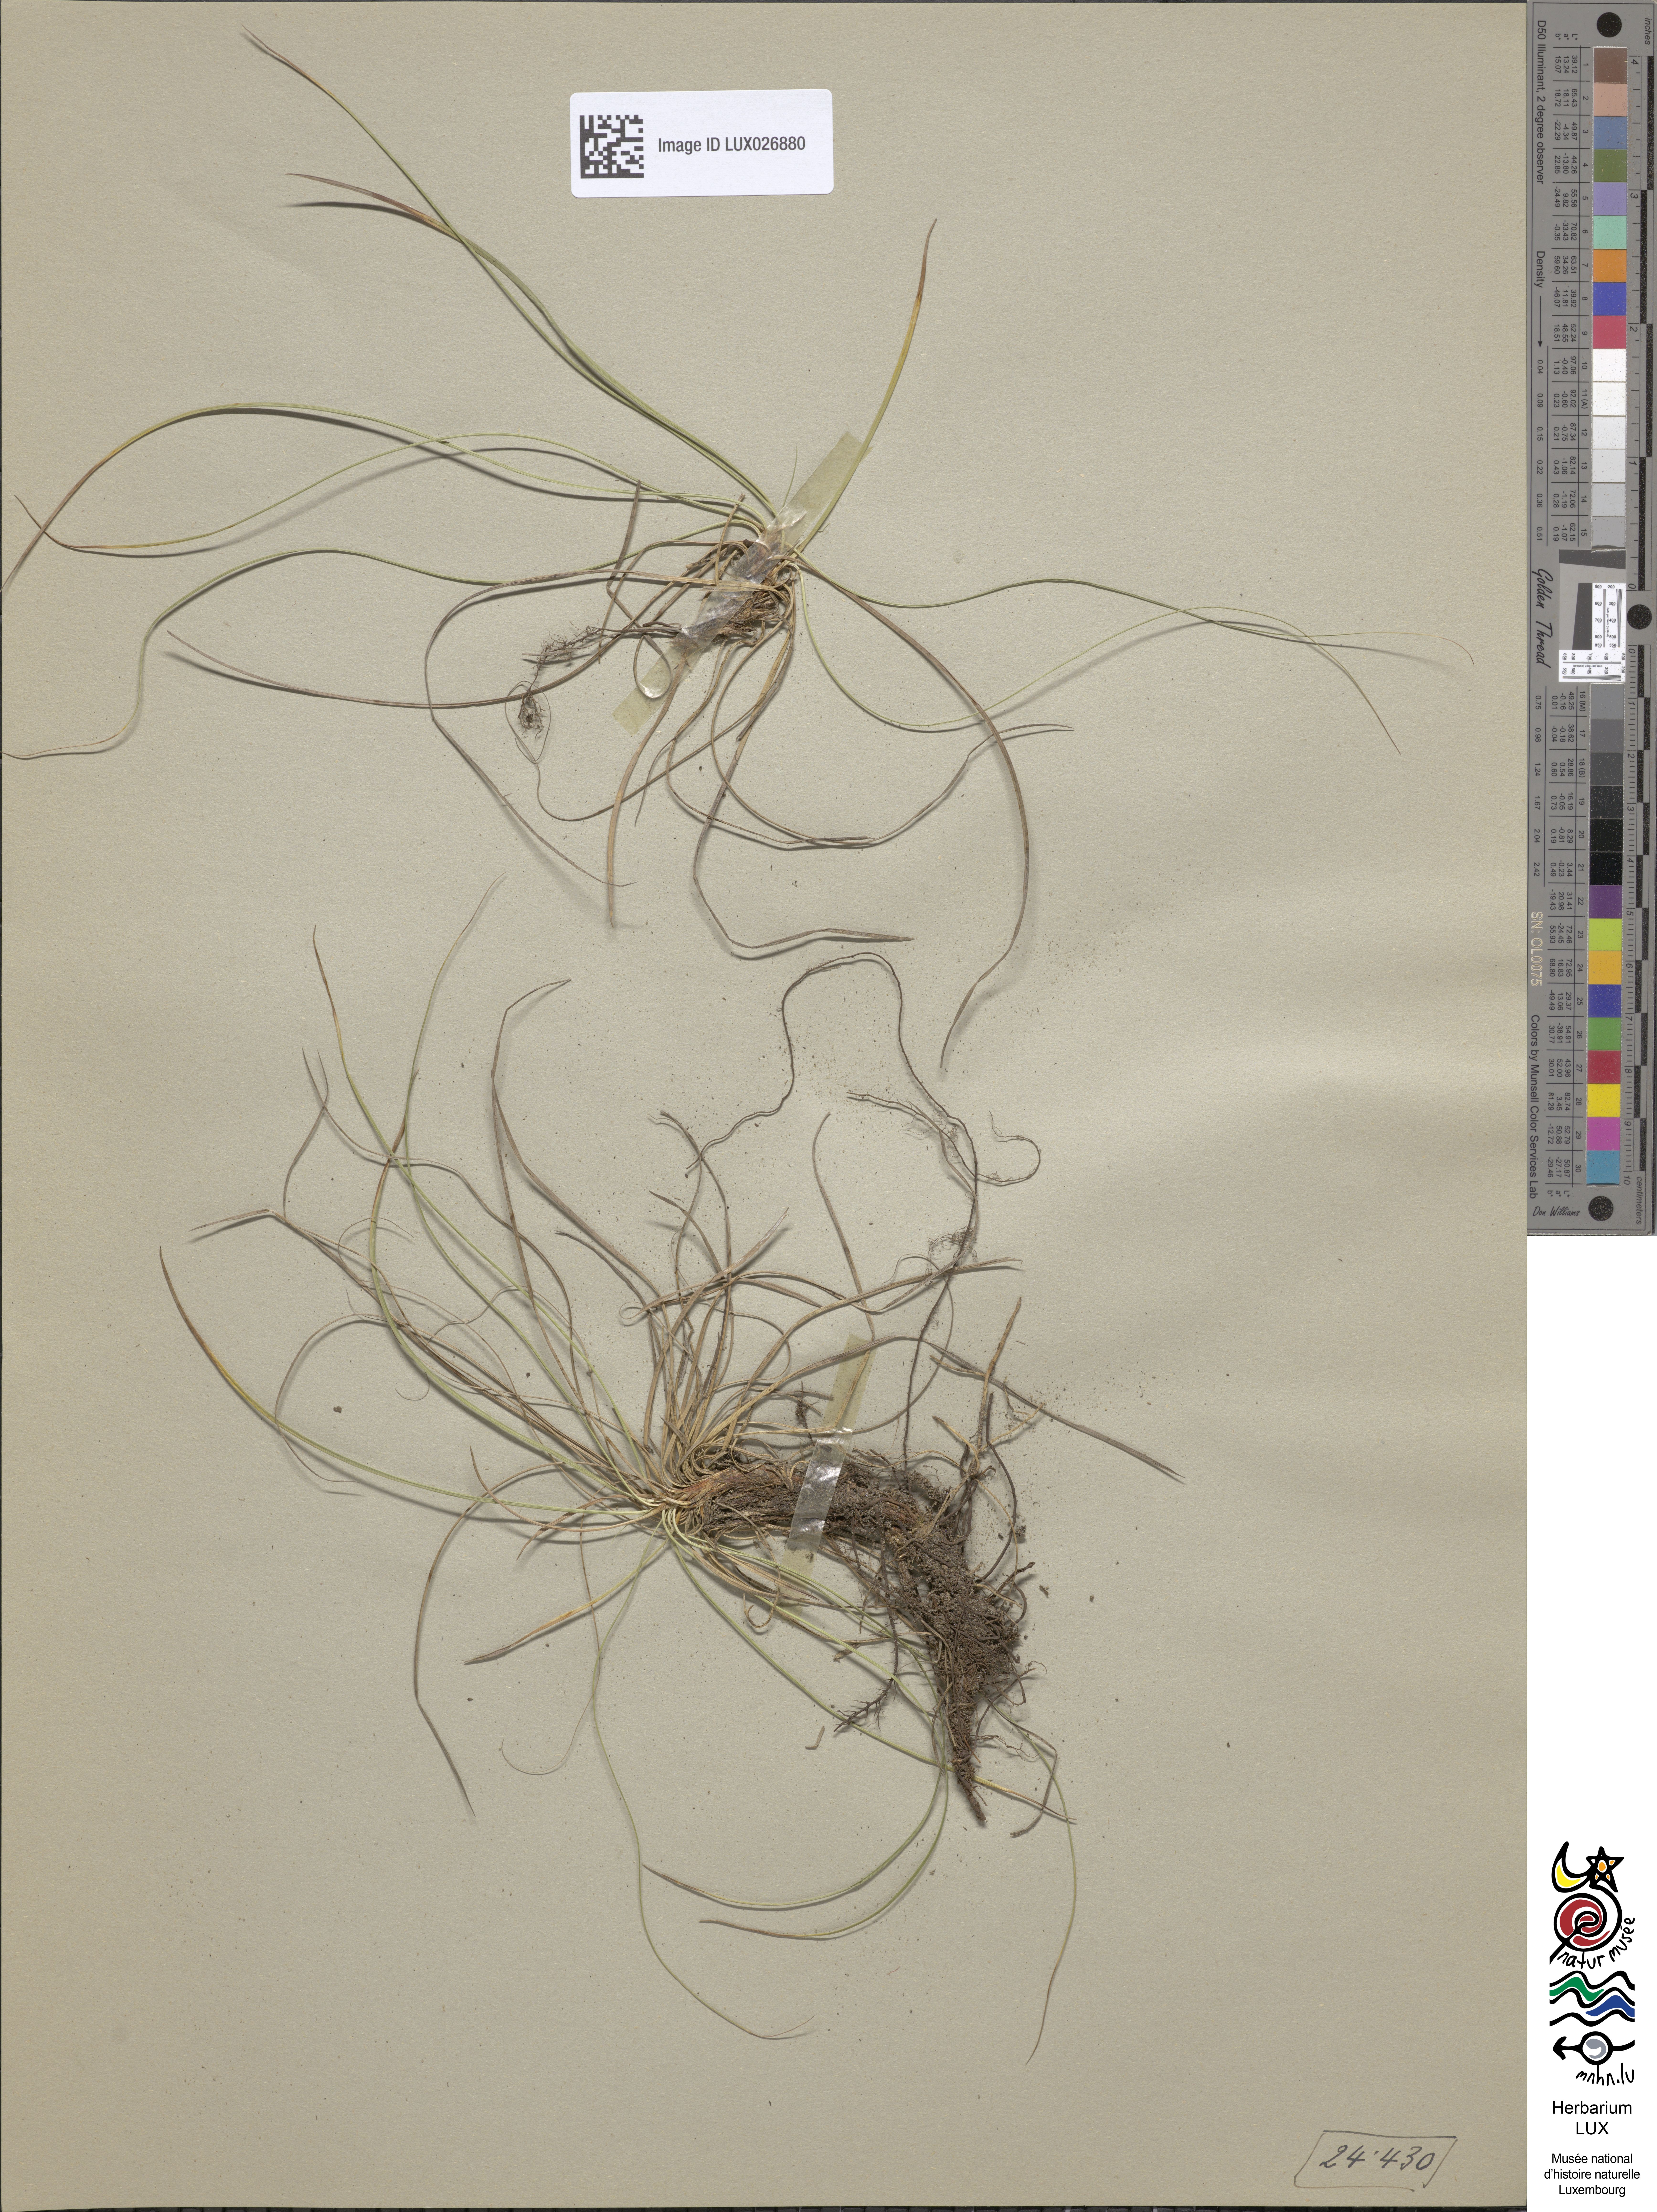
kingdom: Plantae
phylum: Tracheophyta
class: Liliopsida
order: Poales
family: Cyperaceae
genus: Carex
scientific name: Carex humilis
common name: Dwarf sedge
